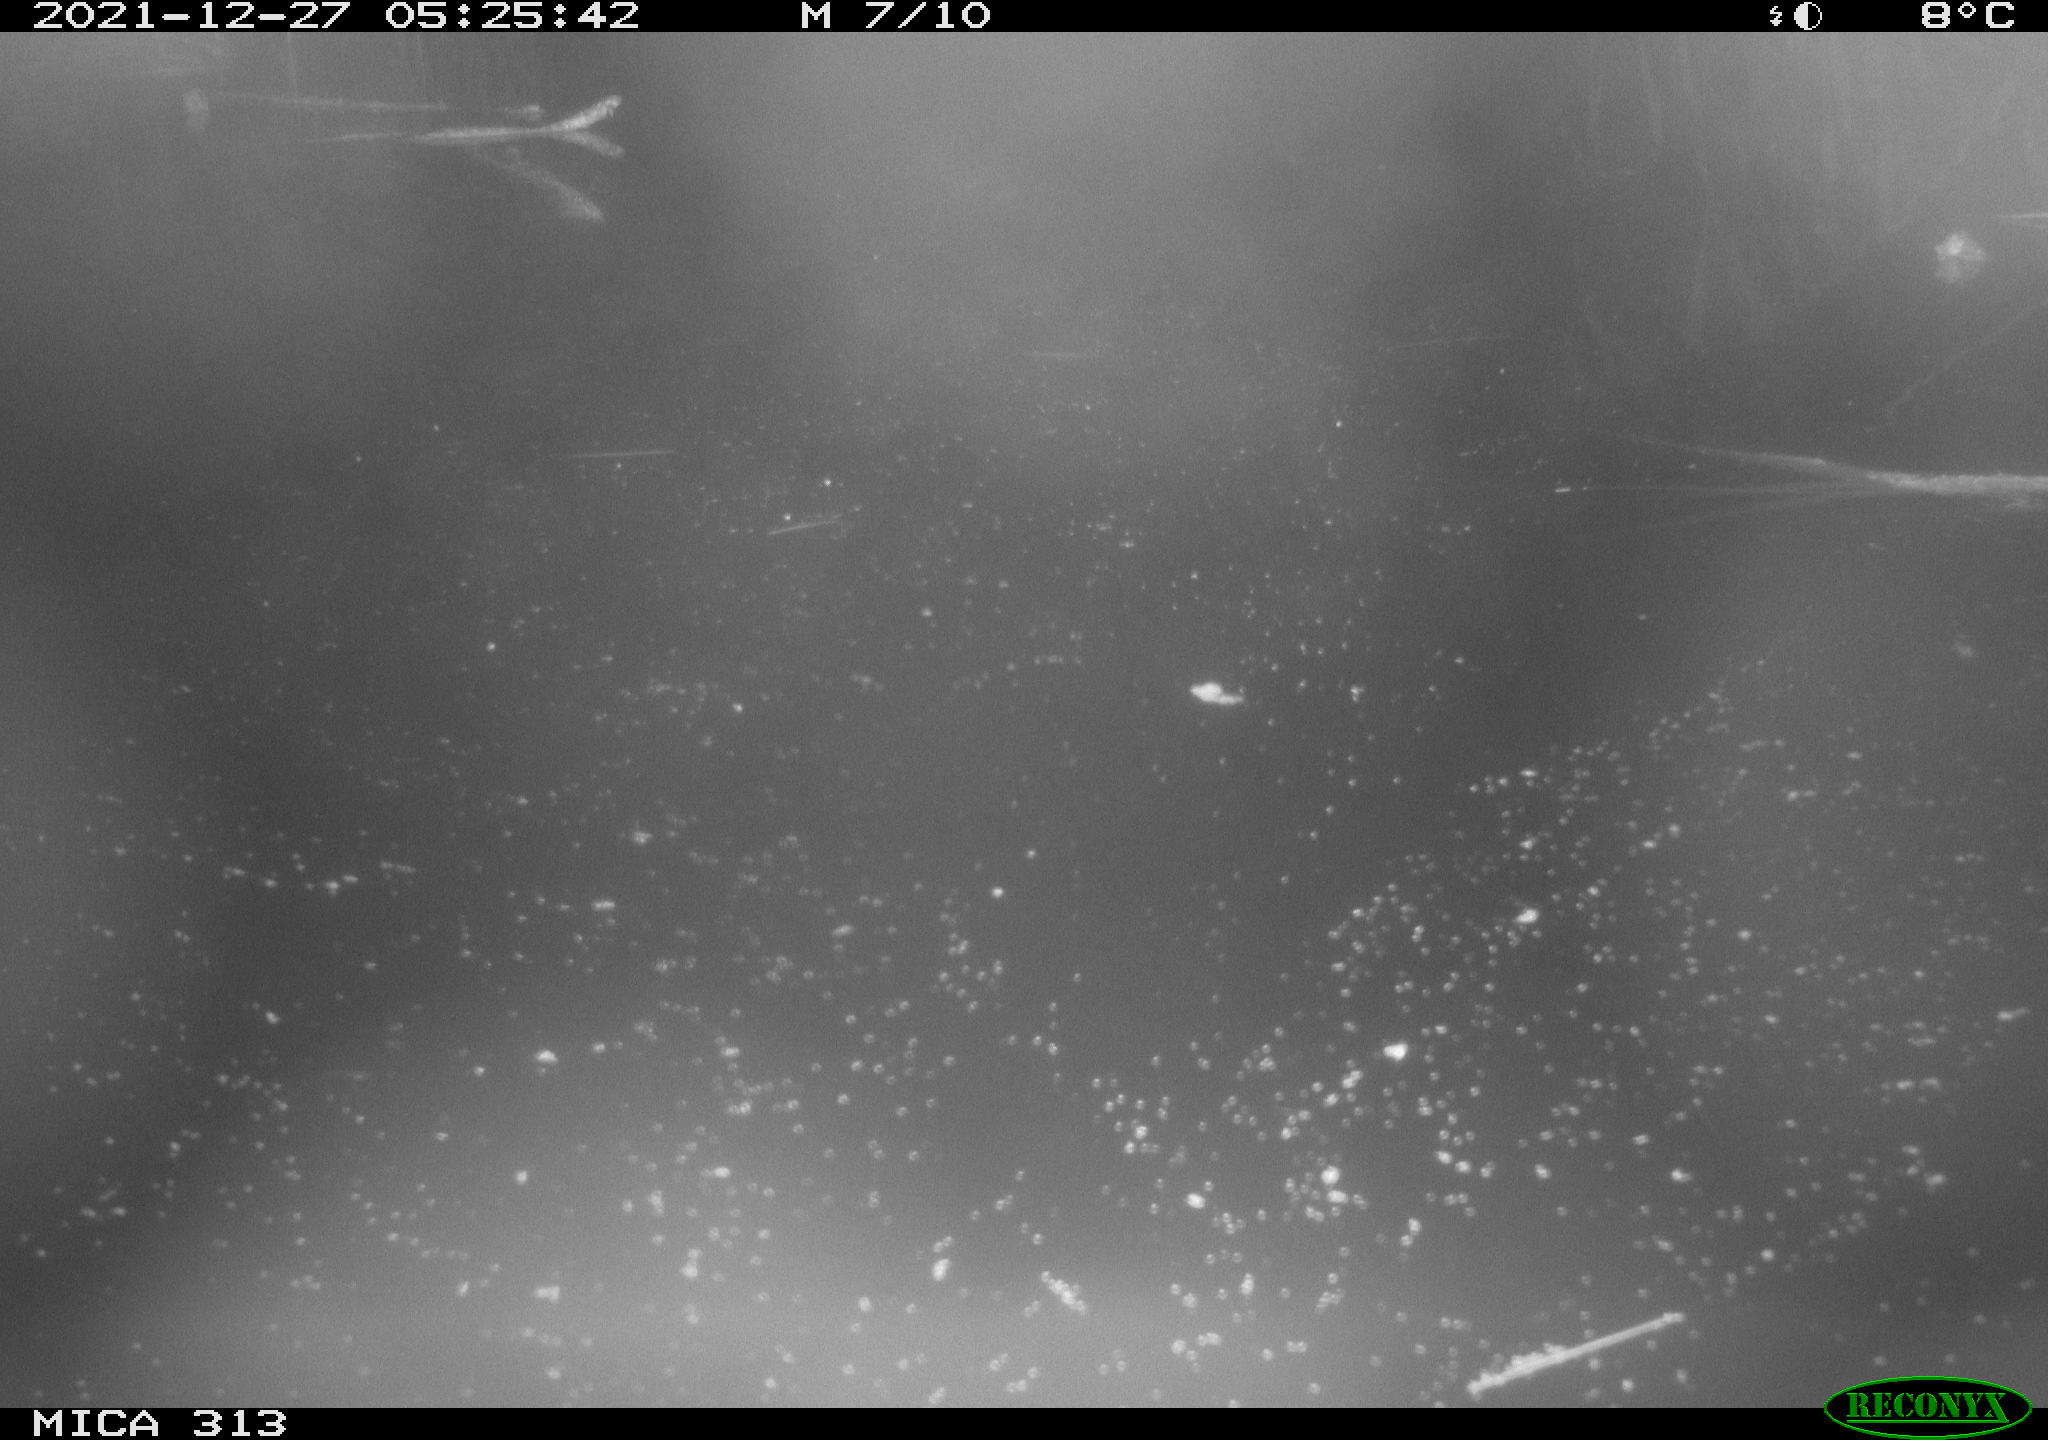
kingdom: Animalia
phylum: Chordata
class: Aves
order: Gruiformes
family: Rallidae
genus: Gallinula
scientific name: Gallinula chloropus
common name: Common moorhen
